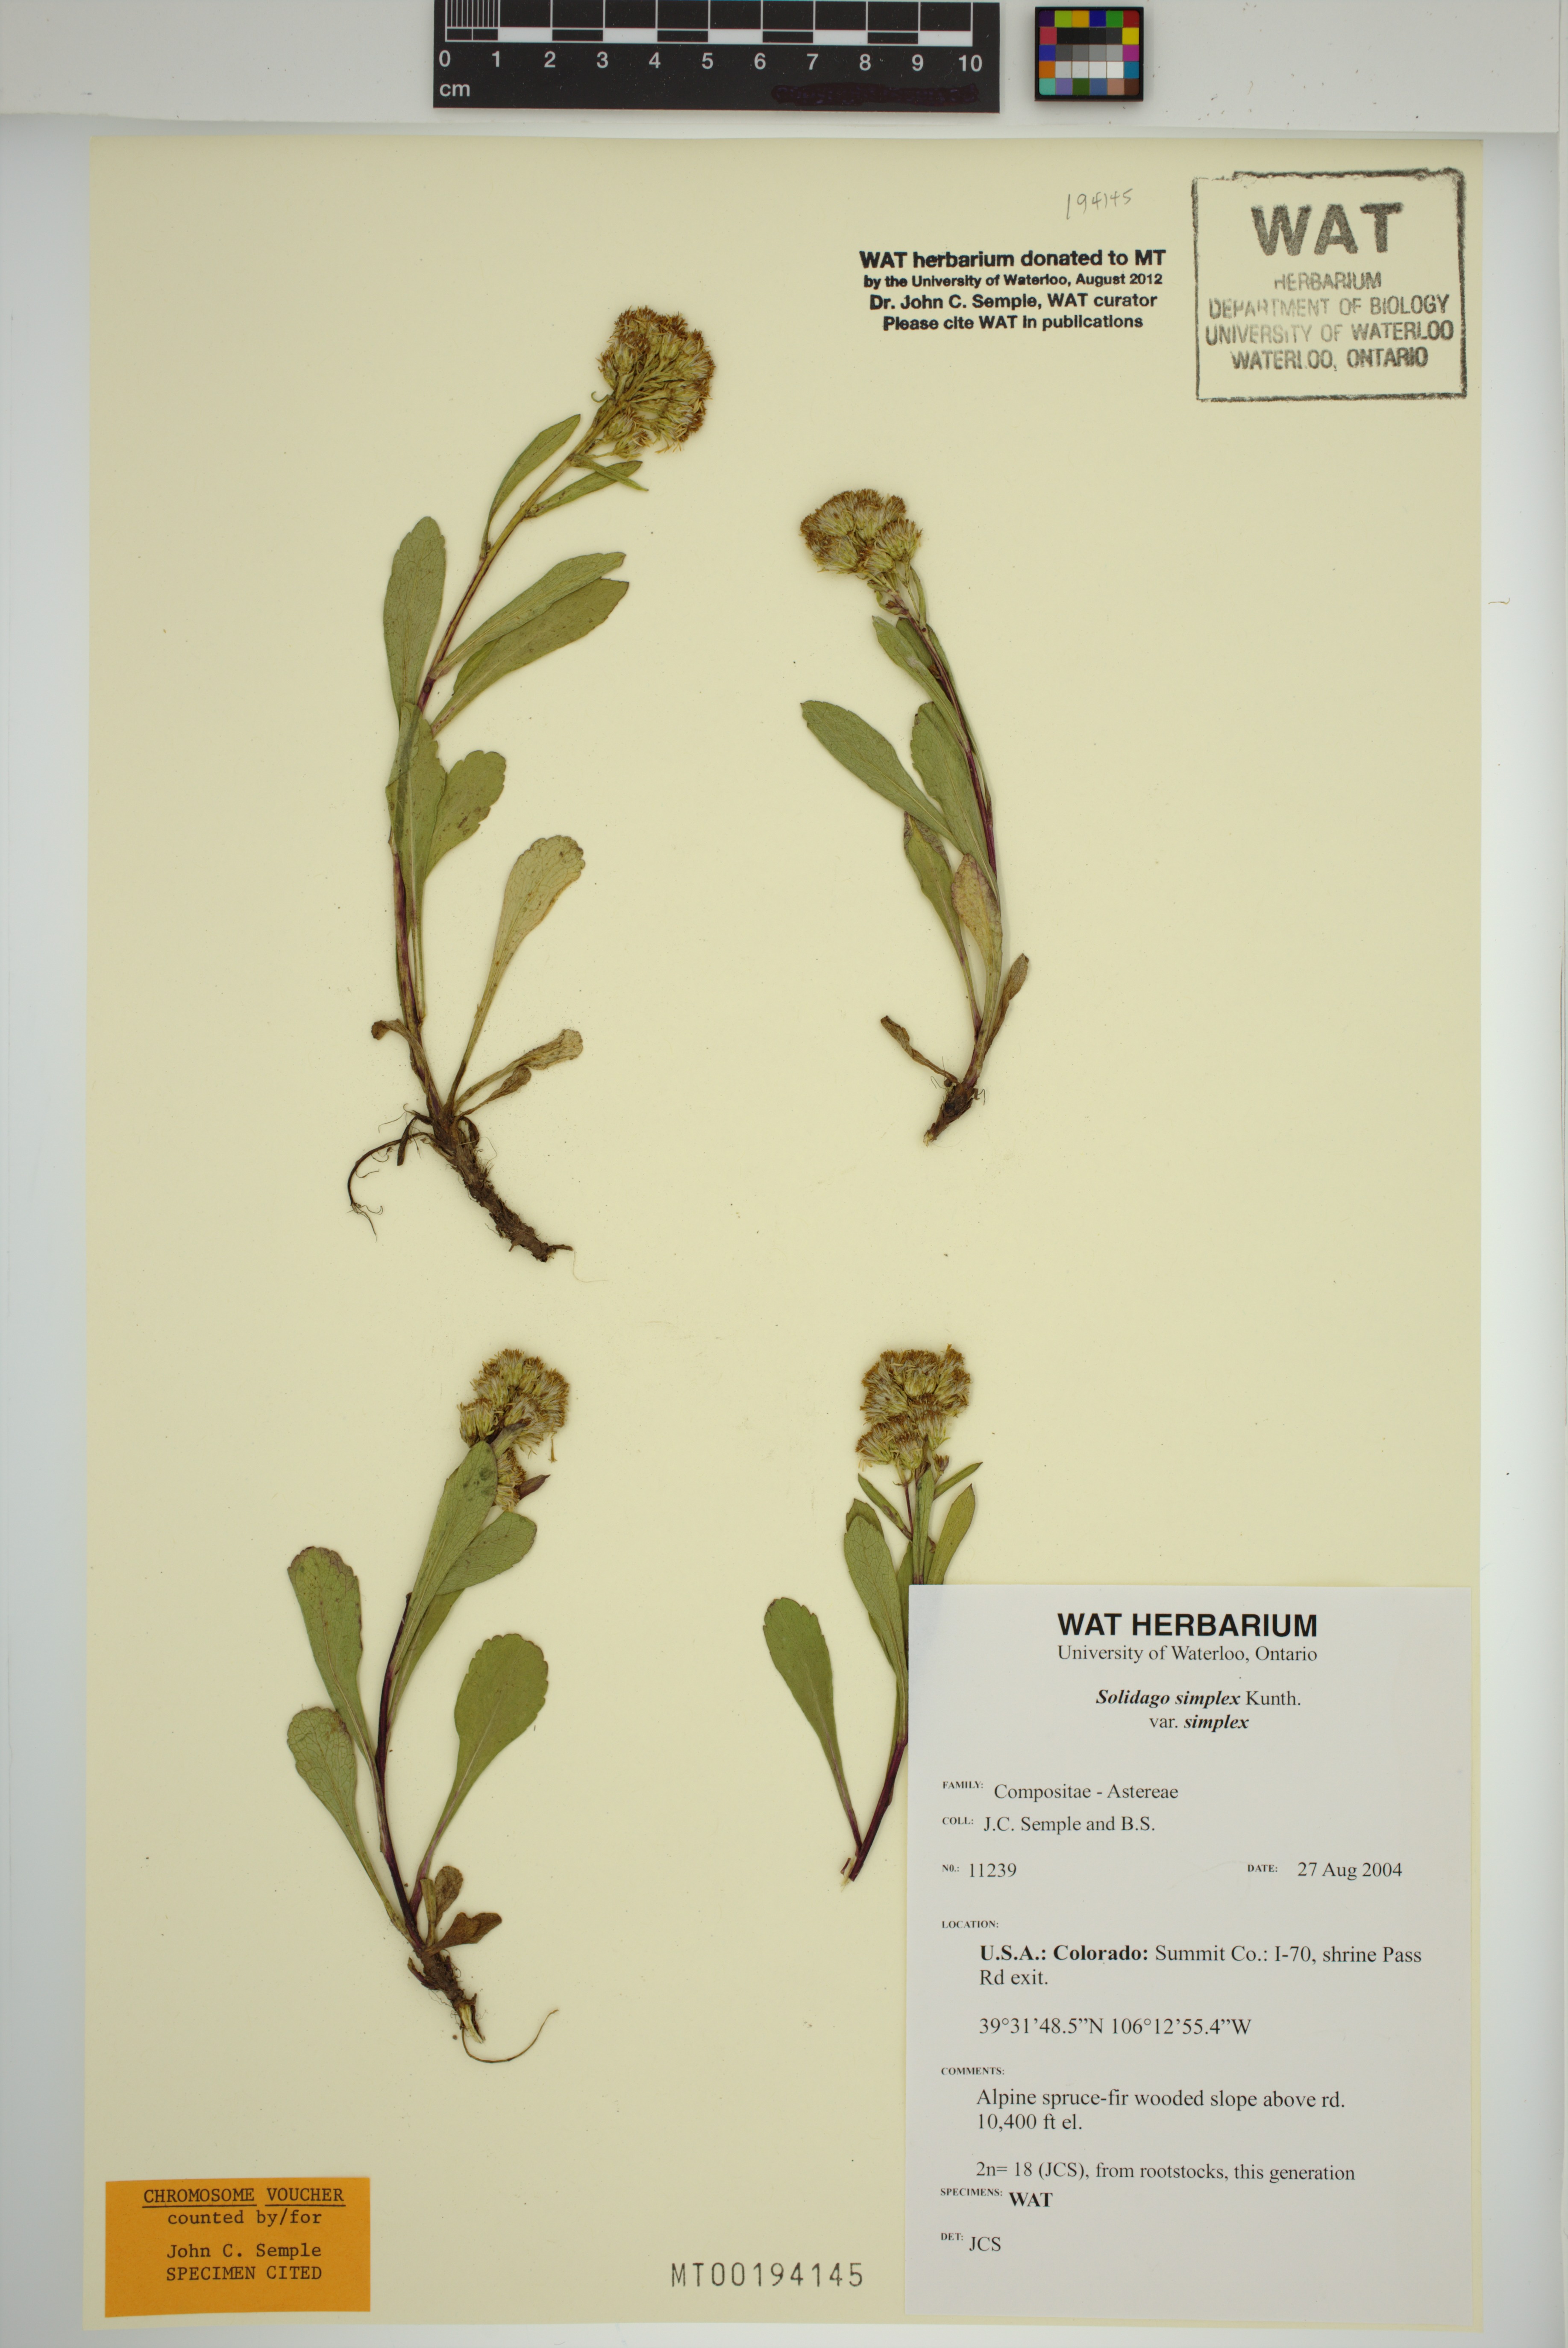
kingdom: Plantae
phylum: Tracheophyta
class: Magnoliopsida
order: Asterales
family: Asteraceae
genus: Solidago
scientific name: Solidago glutinosa
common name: Decumbent goldenrod
